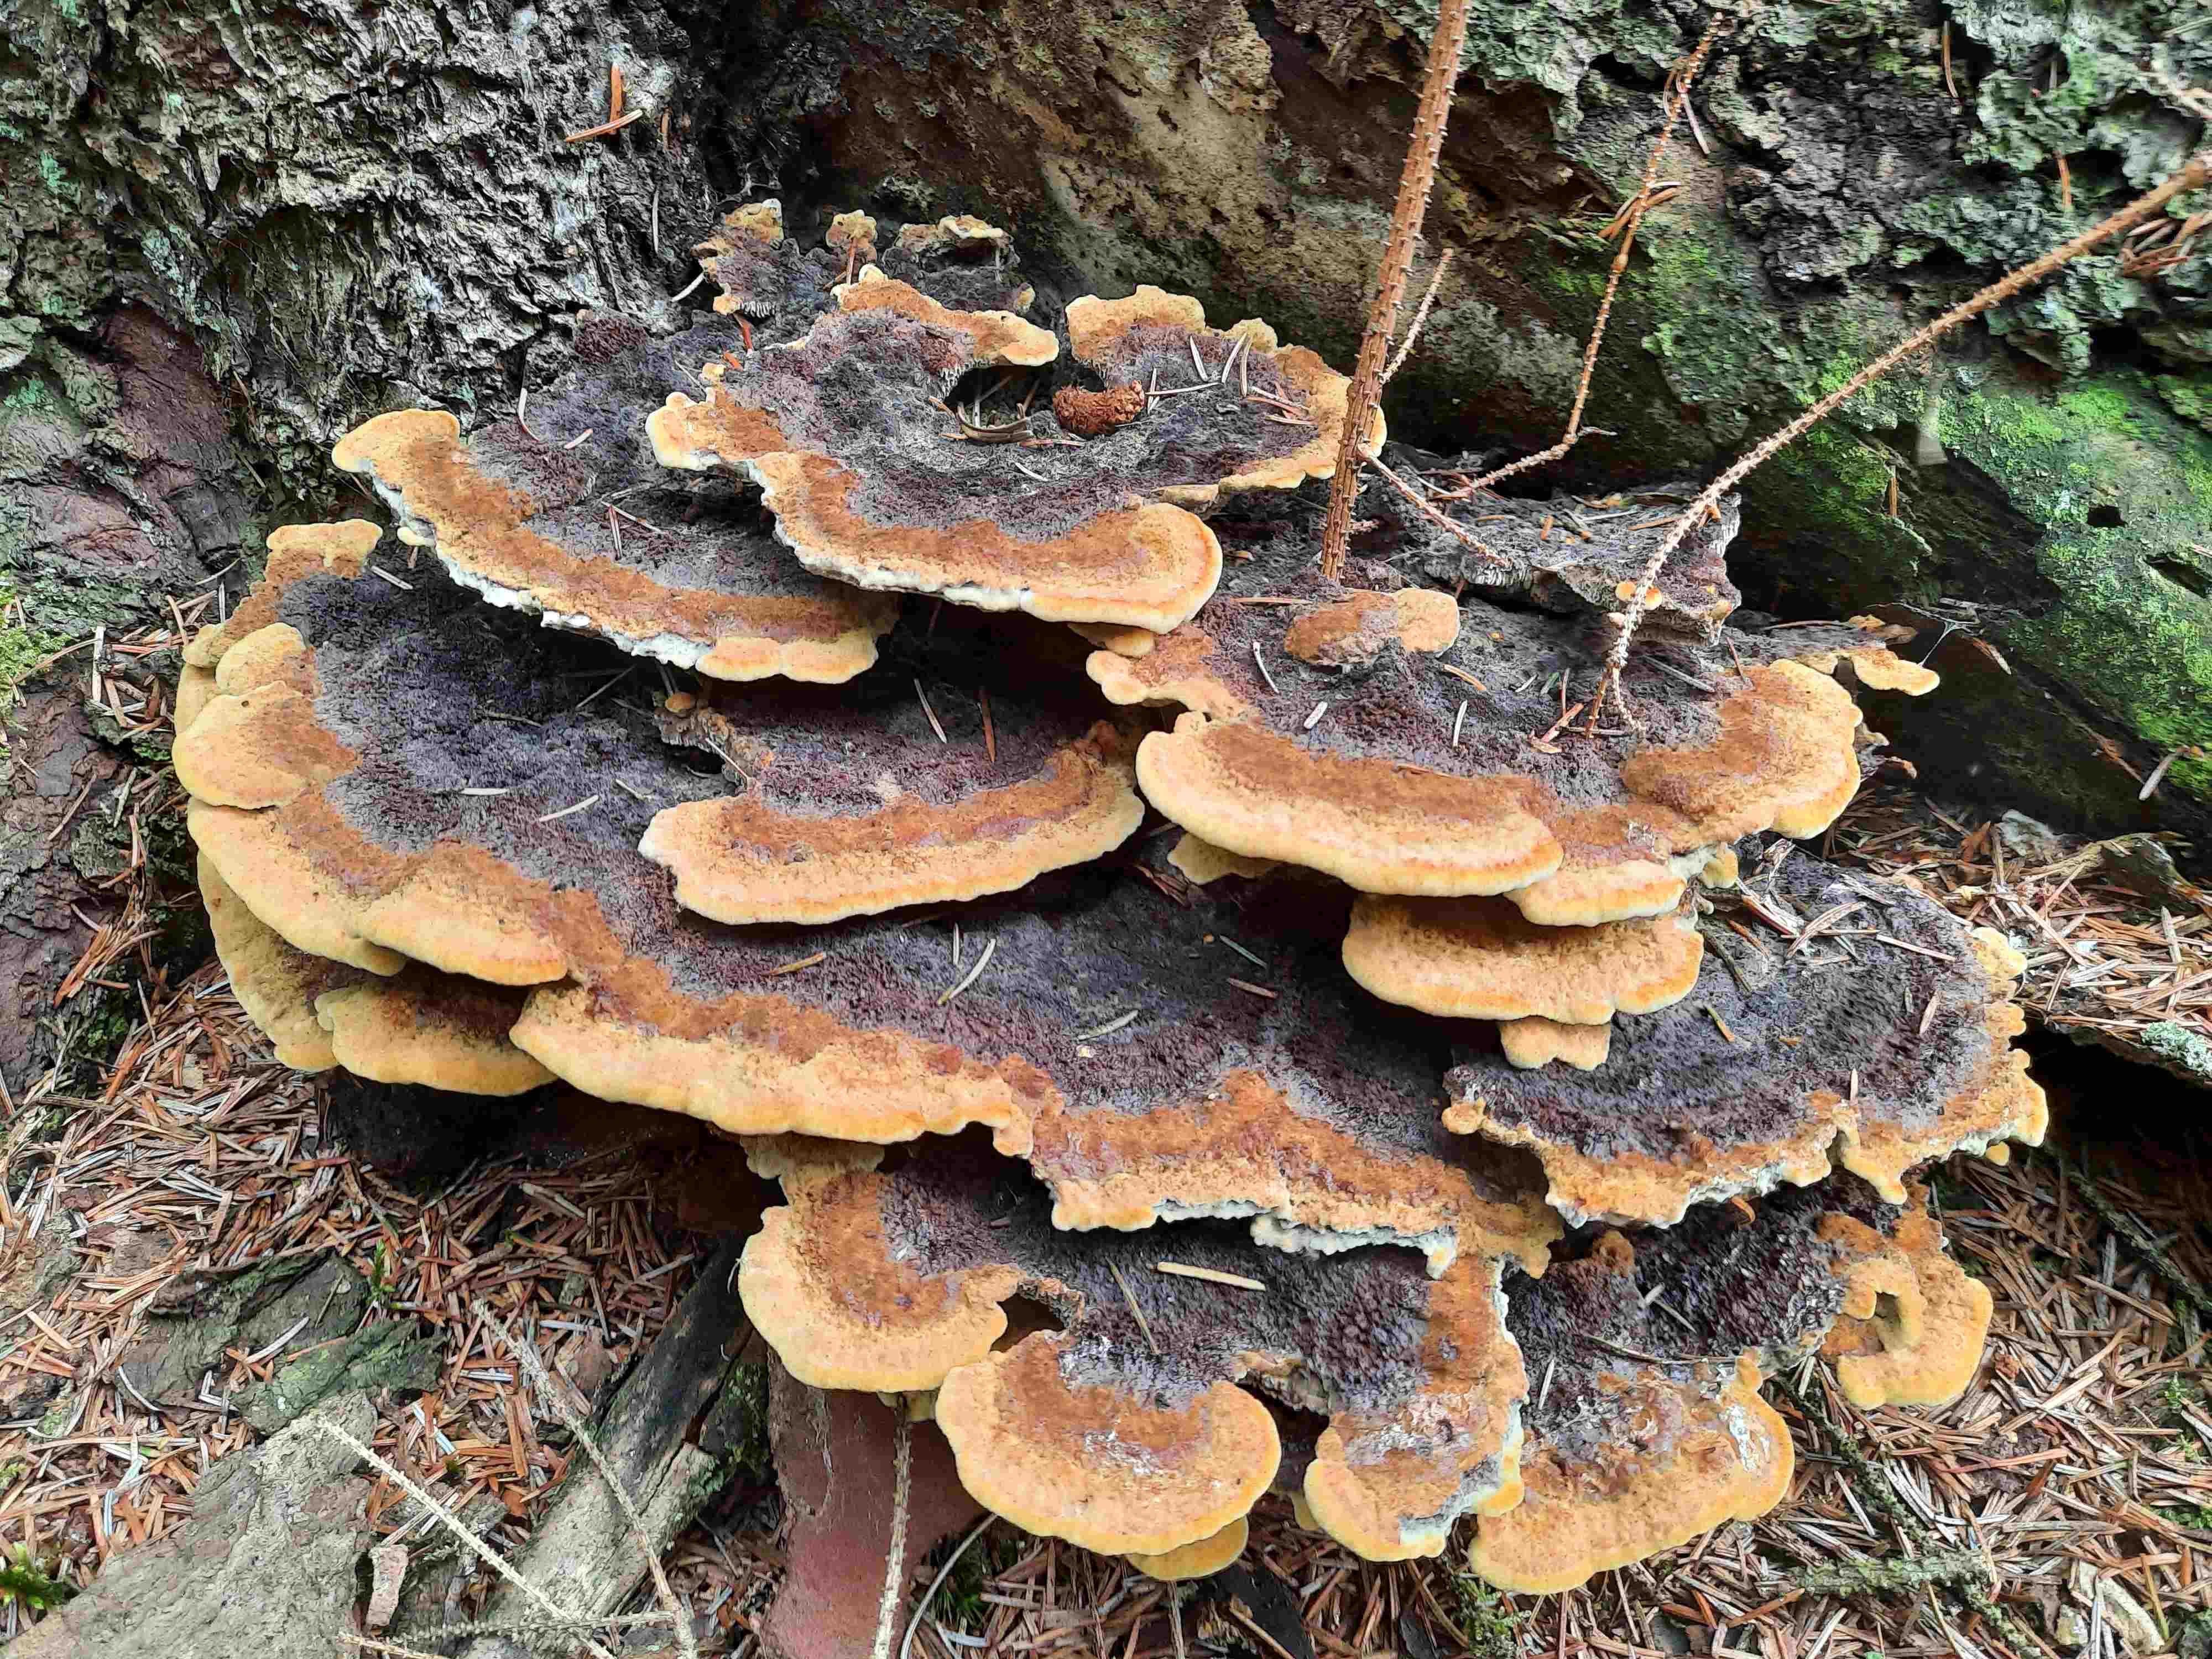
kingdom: Fungi
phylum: Basidiomycota
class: Agaricomycetes
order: Polyporales
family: Laetiporaceae
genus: Phaeolus
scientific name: Phaeolus schweinitzii
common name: brunporesvamp
